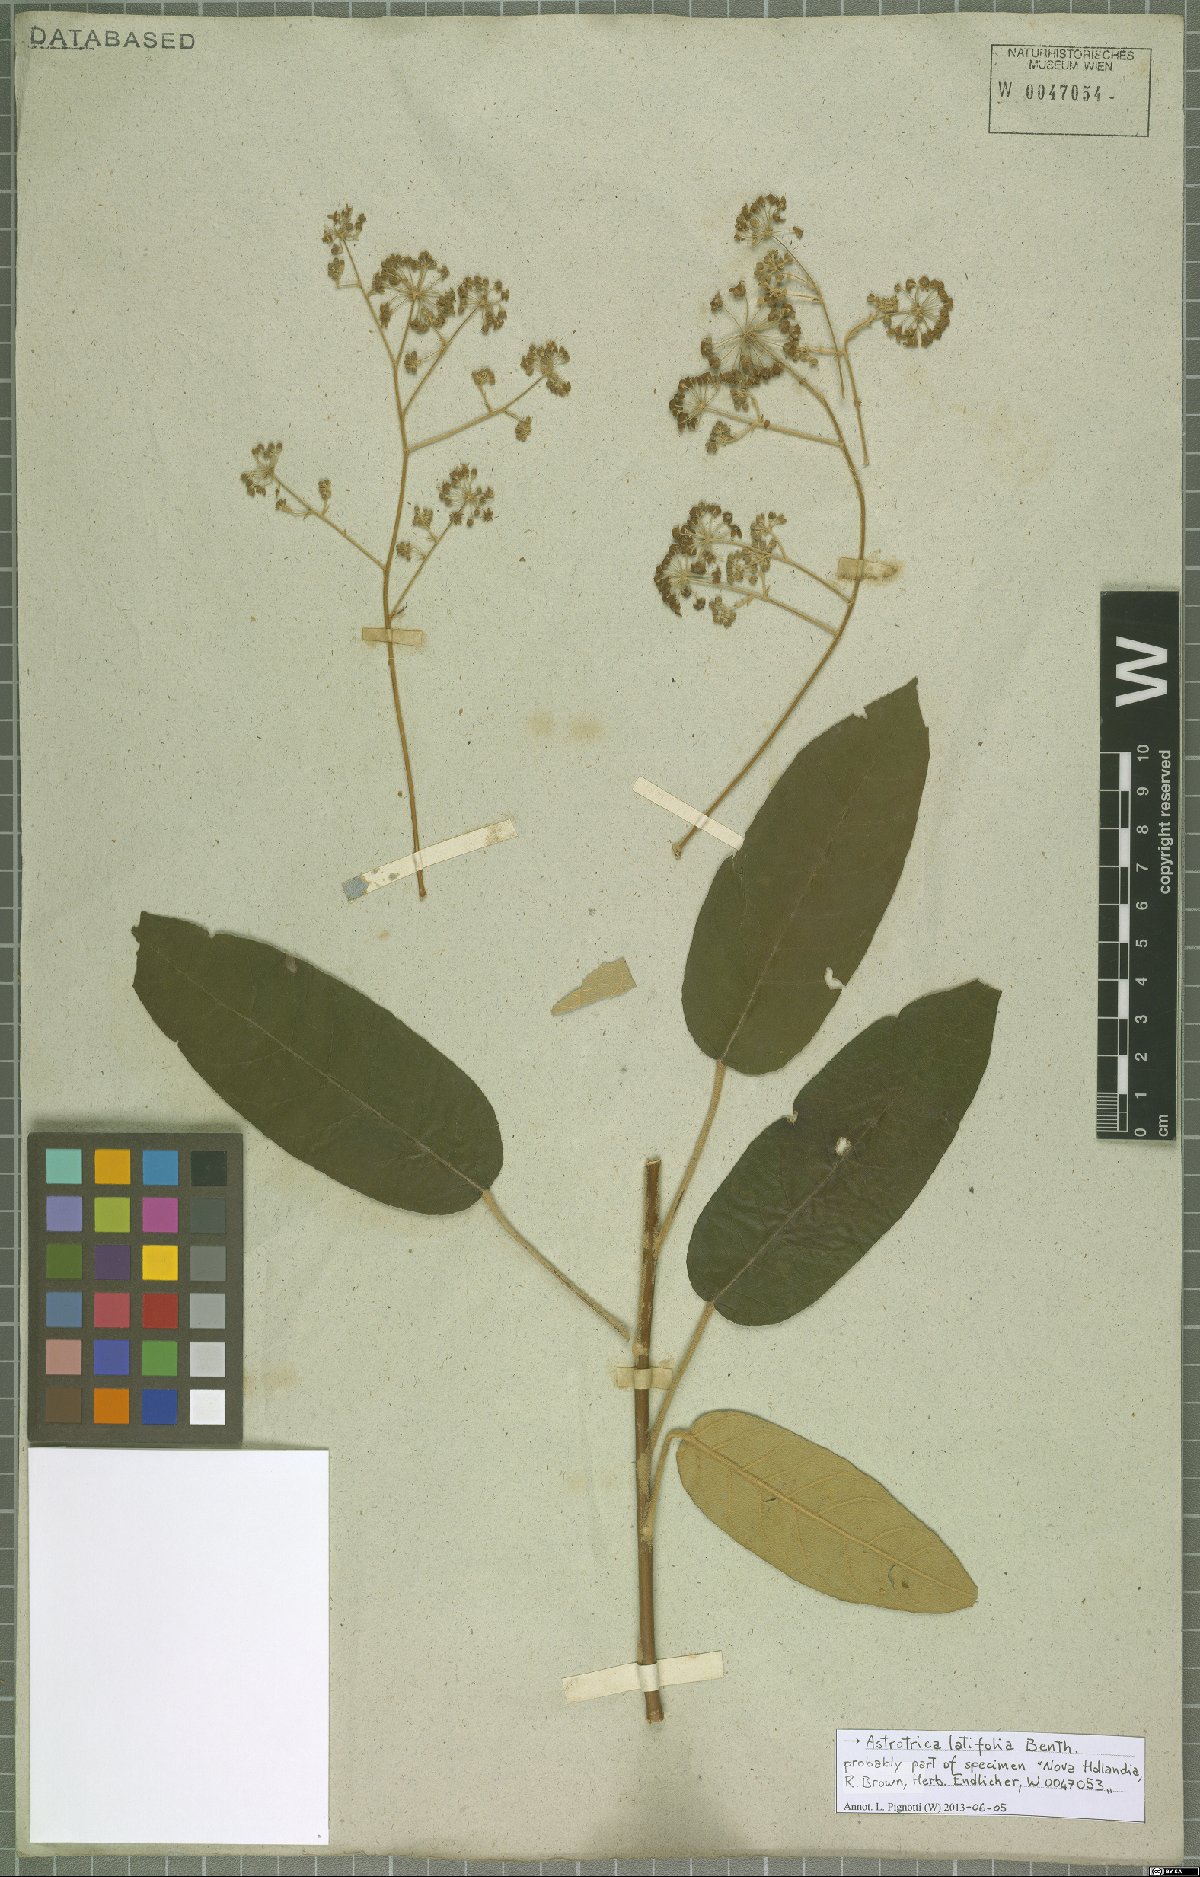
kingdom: Plantae
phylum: Tracheophyta
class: Magnoliopsida
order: Apiales
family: Araliaceae
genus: Astrotricha
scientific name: Astrotricha latifolia
